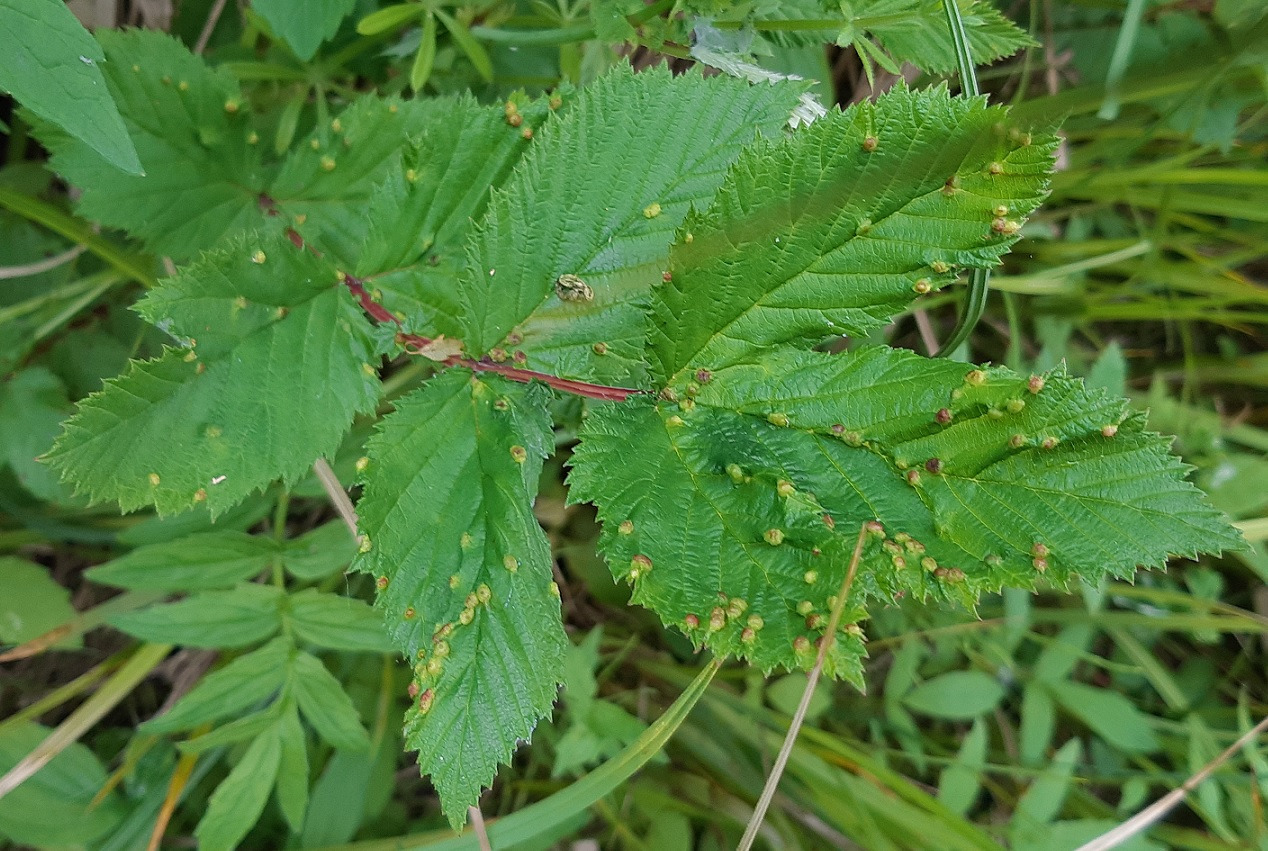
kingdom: Animalia
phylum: Arthropoda
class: Insecta
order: Diptera
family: Cecidomyiidae
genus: Dasineura
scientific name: Dasineura ulmaria
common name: Mjødurtgalmyg
